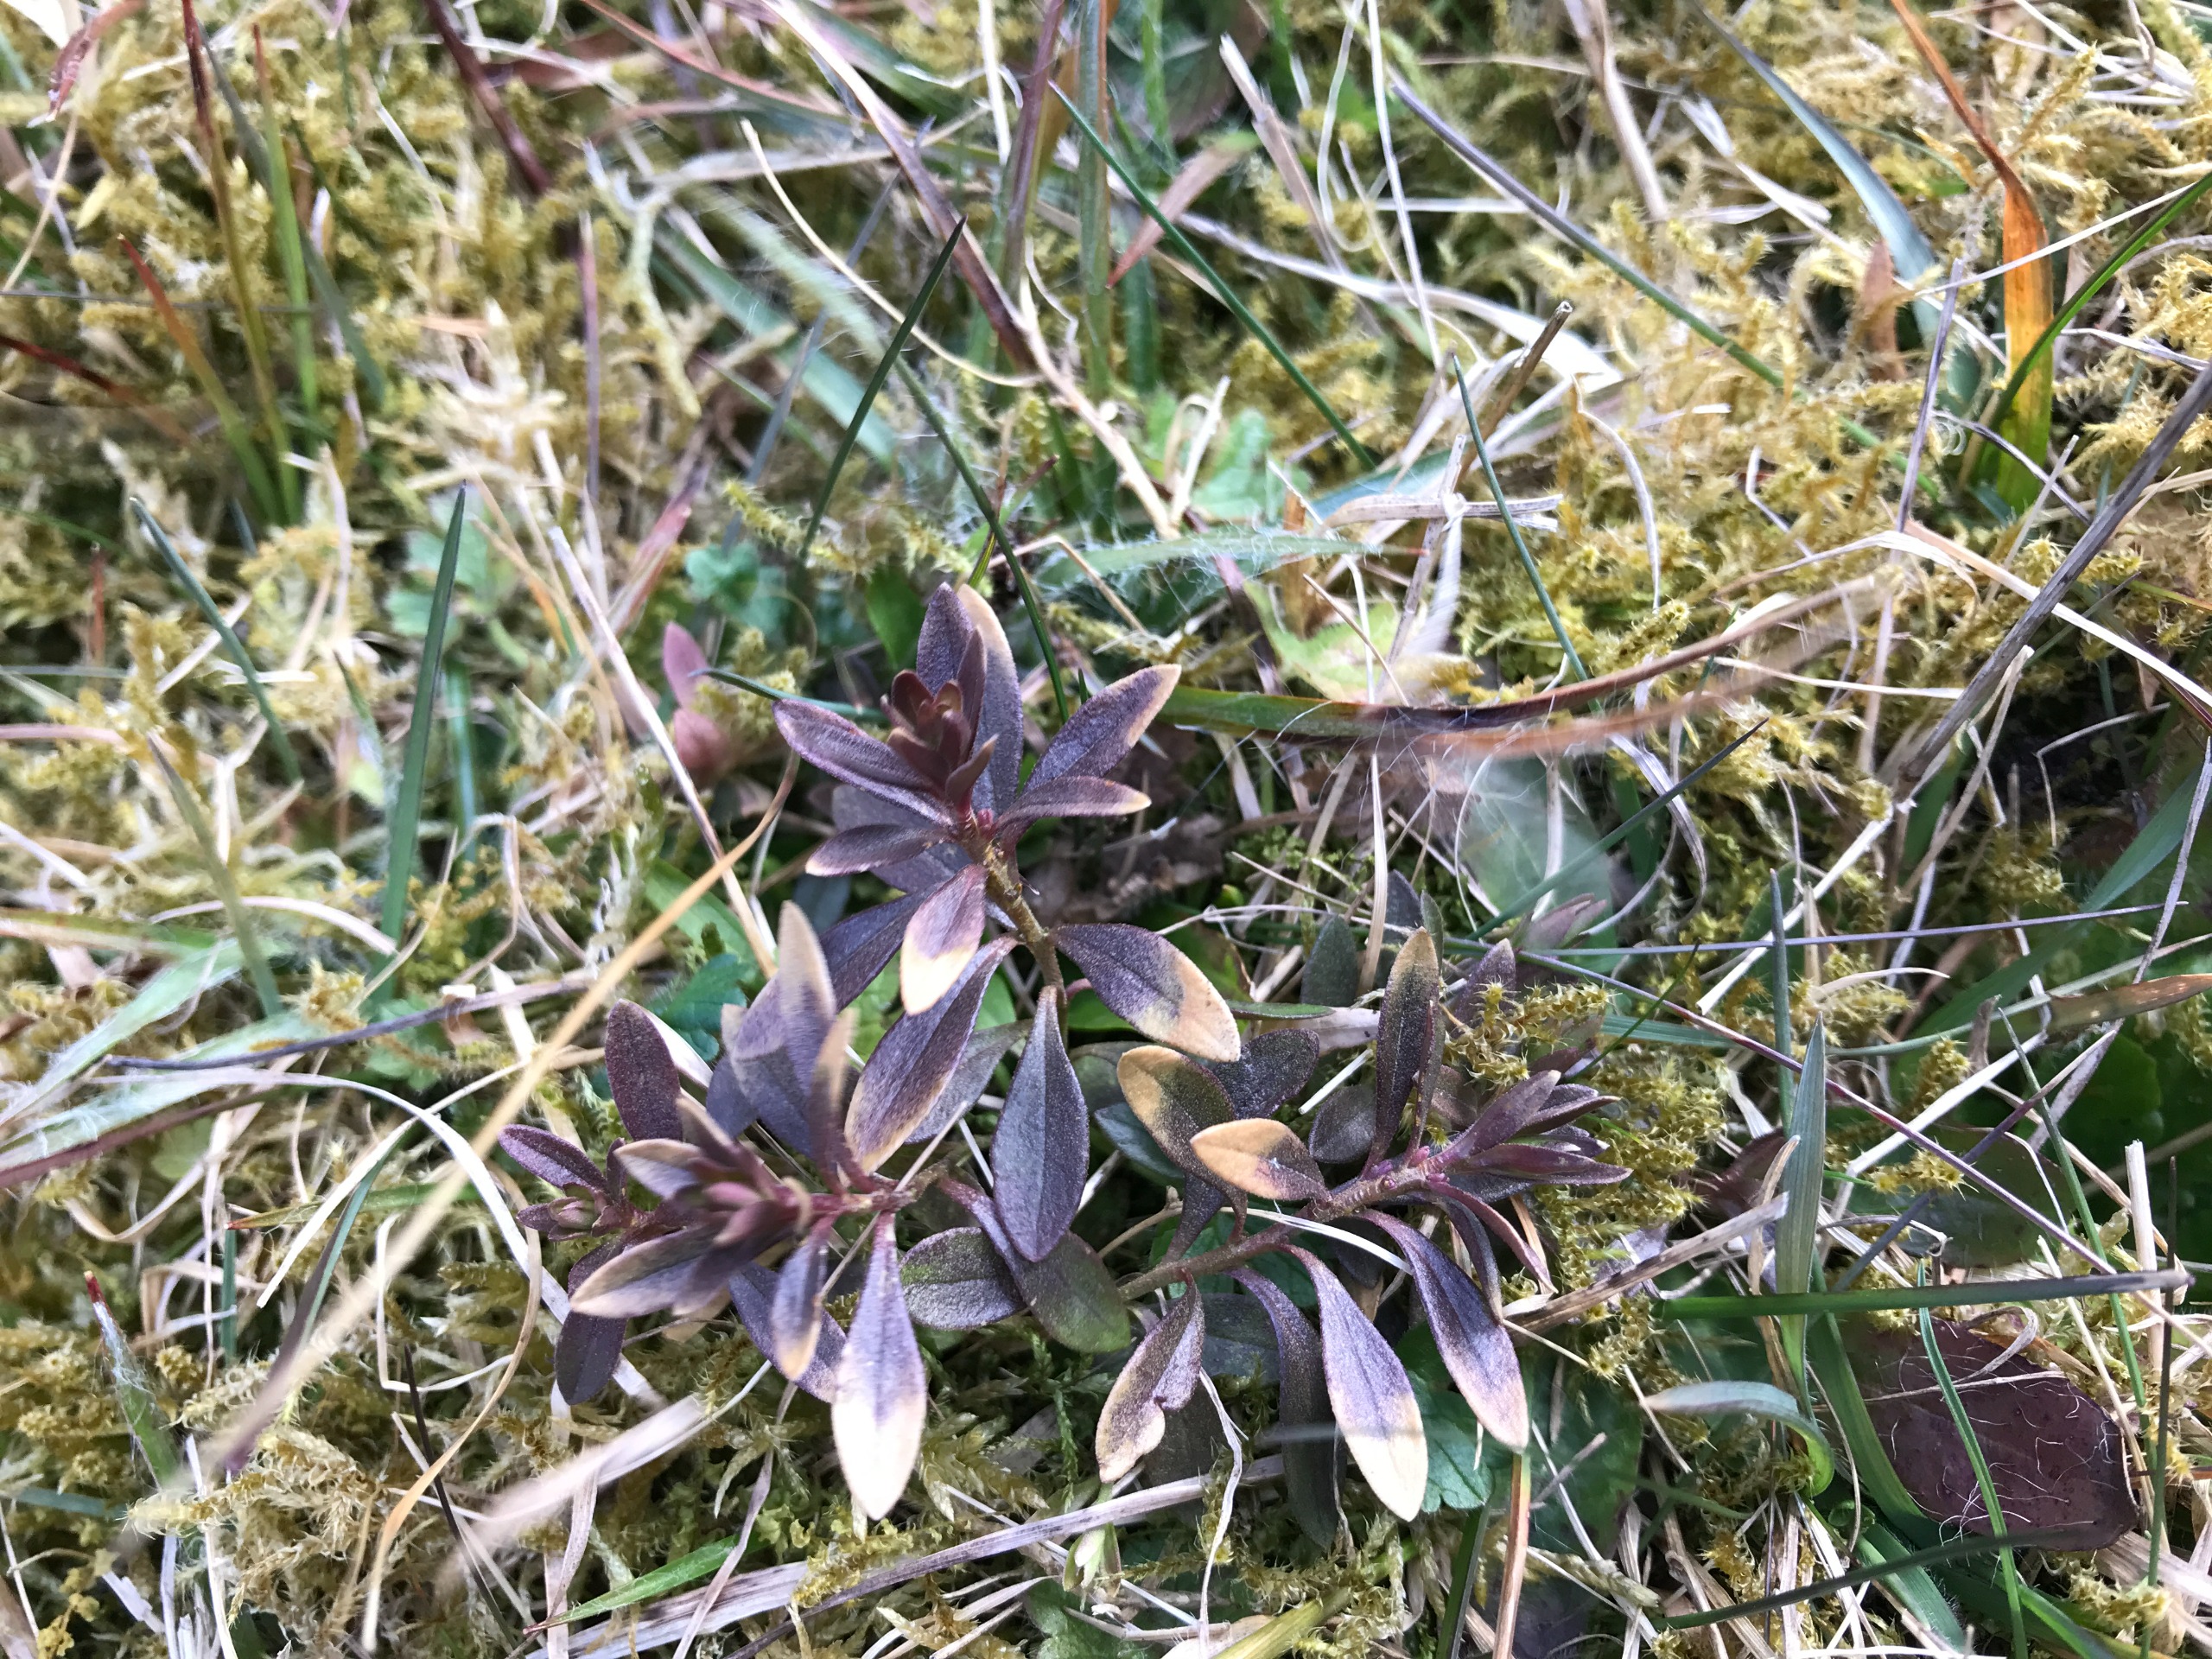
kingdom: Plantae
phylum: Tracheophyta
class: Magnoliopsida
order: Fabales
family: Polygalaceae
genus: Polygala
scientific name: Polygala vulgaris
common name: Almindelig mælkeurt
